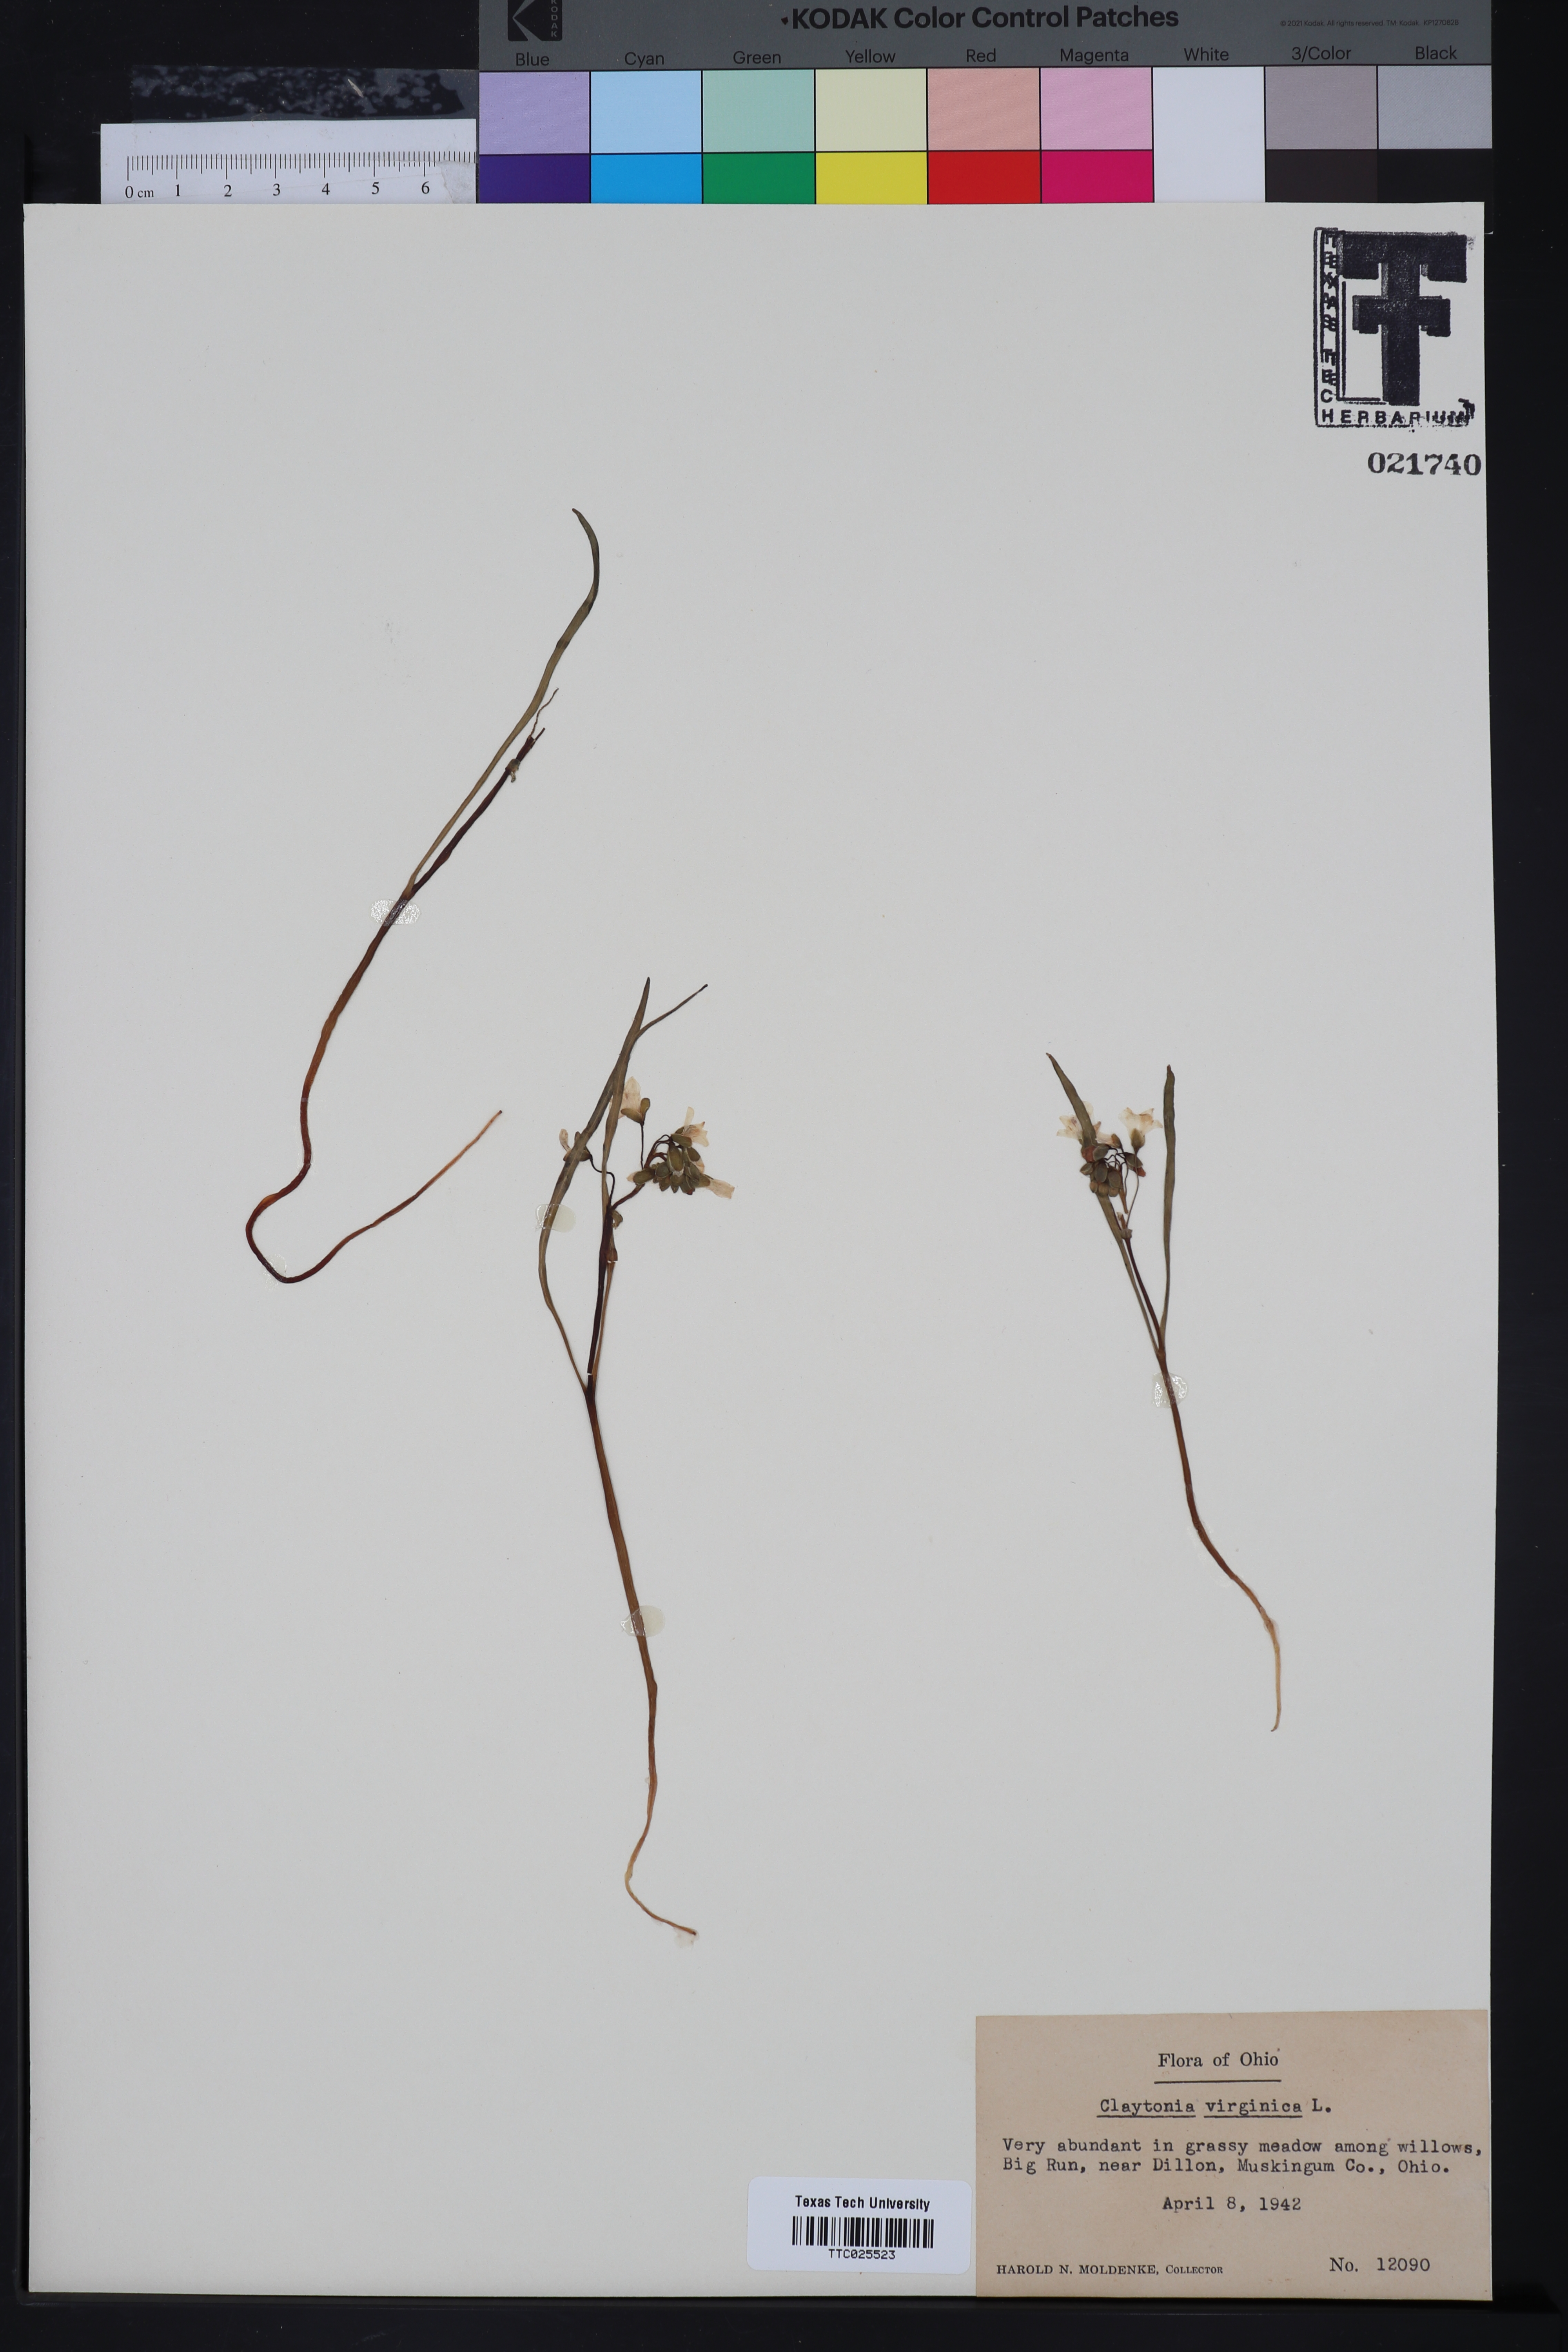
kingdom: Plantae
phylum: Tracheophyta
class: Magnoliopsida
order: Caryophyllales
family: Montiaceae
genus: Claytonia
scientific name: Claytonia virginica
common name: Virginia springbeauty
